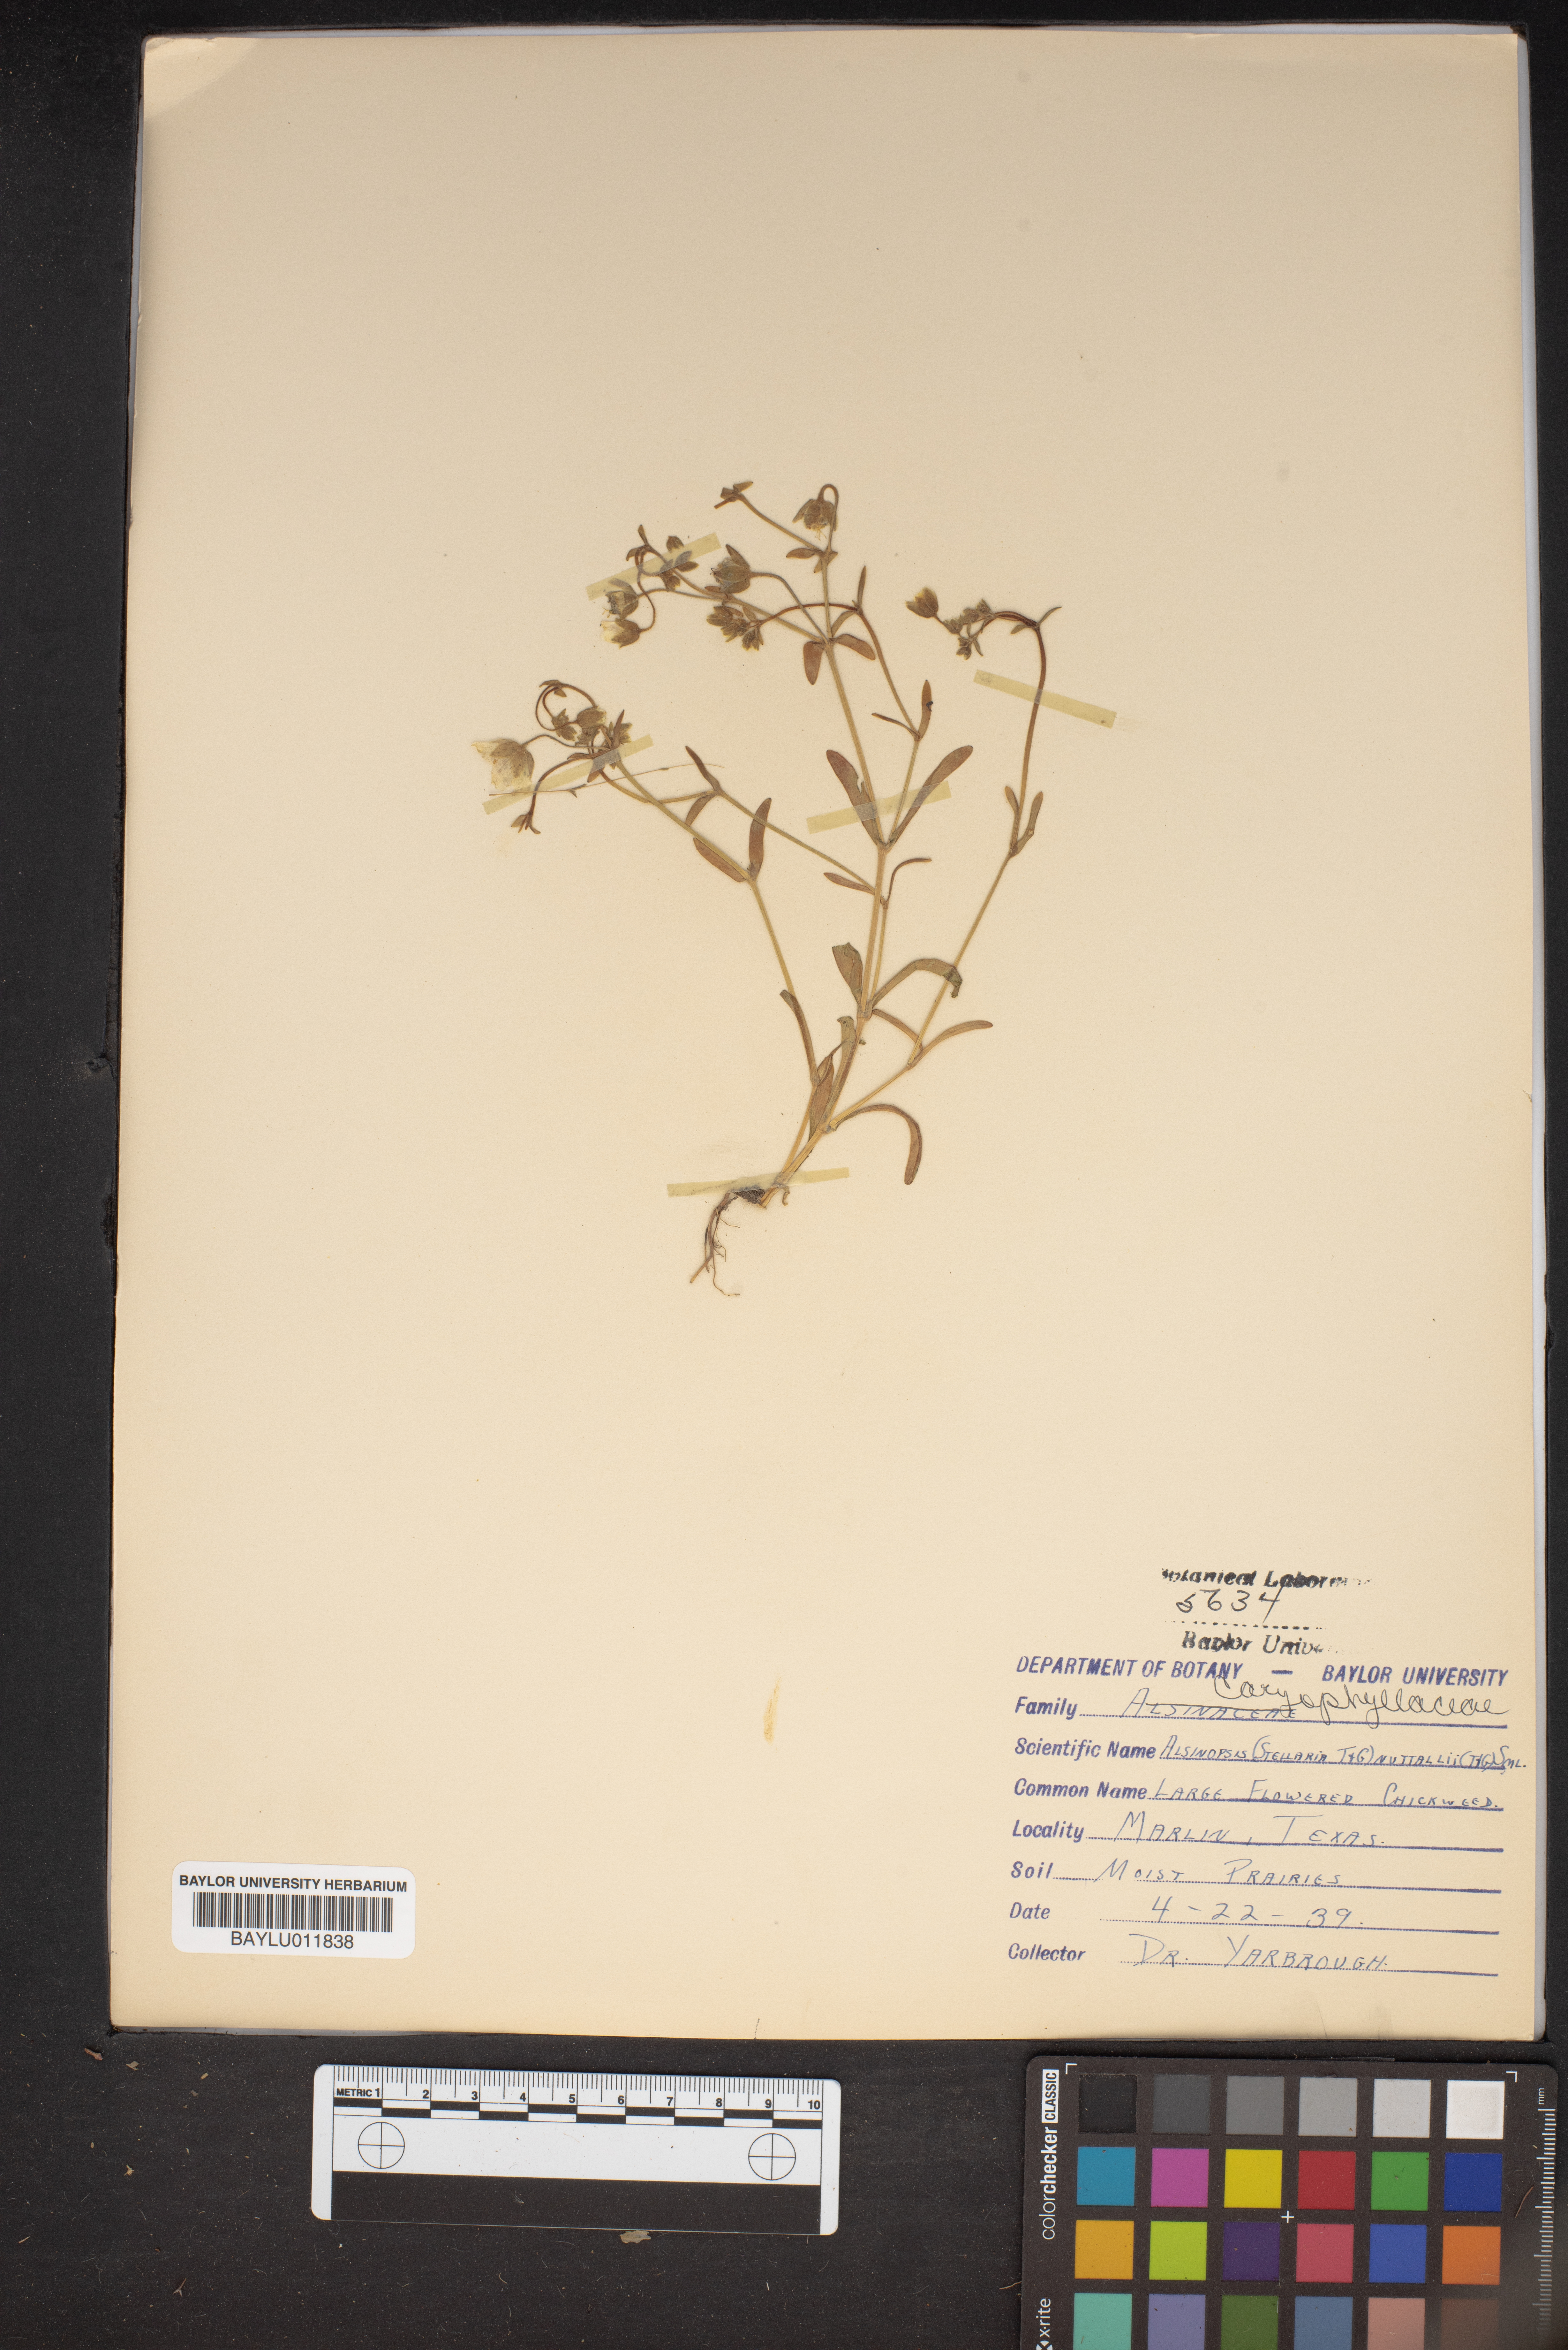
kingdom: Plantae
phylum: Tracheophyta
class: Magnoliopsida
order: Caryophyllales
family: Caryophyllaceae
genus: Minuartia
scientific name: Minuartia
